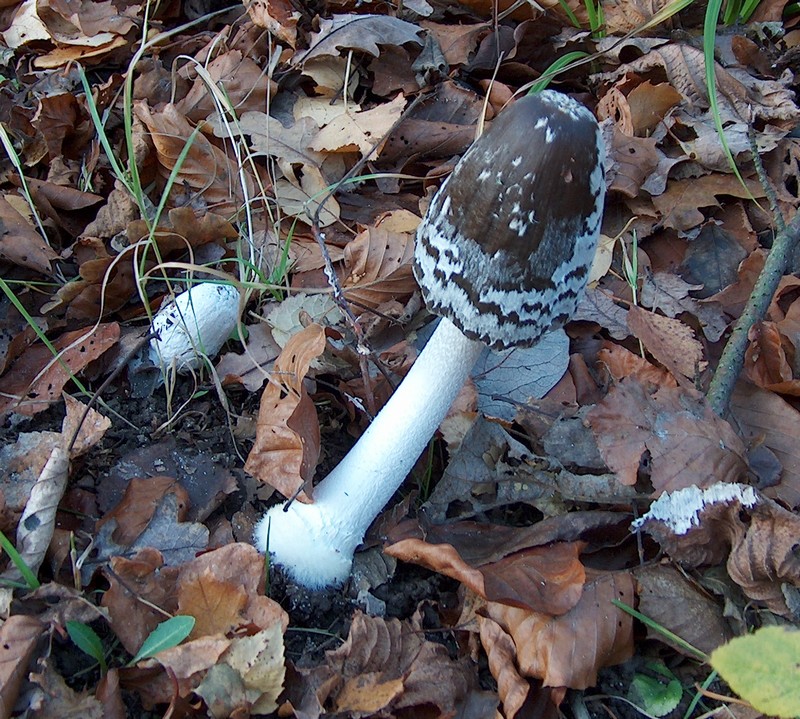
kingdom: Fungi
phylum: Basidiomycota
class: Agaricomycetes
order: Agaricales
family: Psathyrellaceae
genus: Coprinopsis
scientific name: Coprinopsis picacea
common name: skade-blækhat
